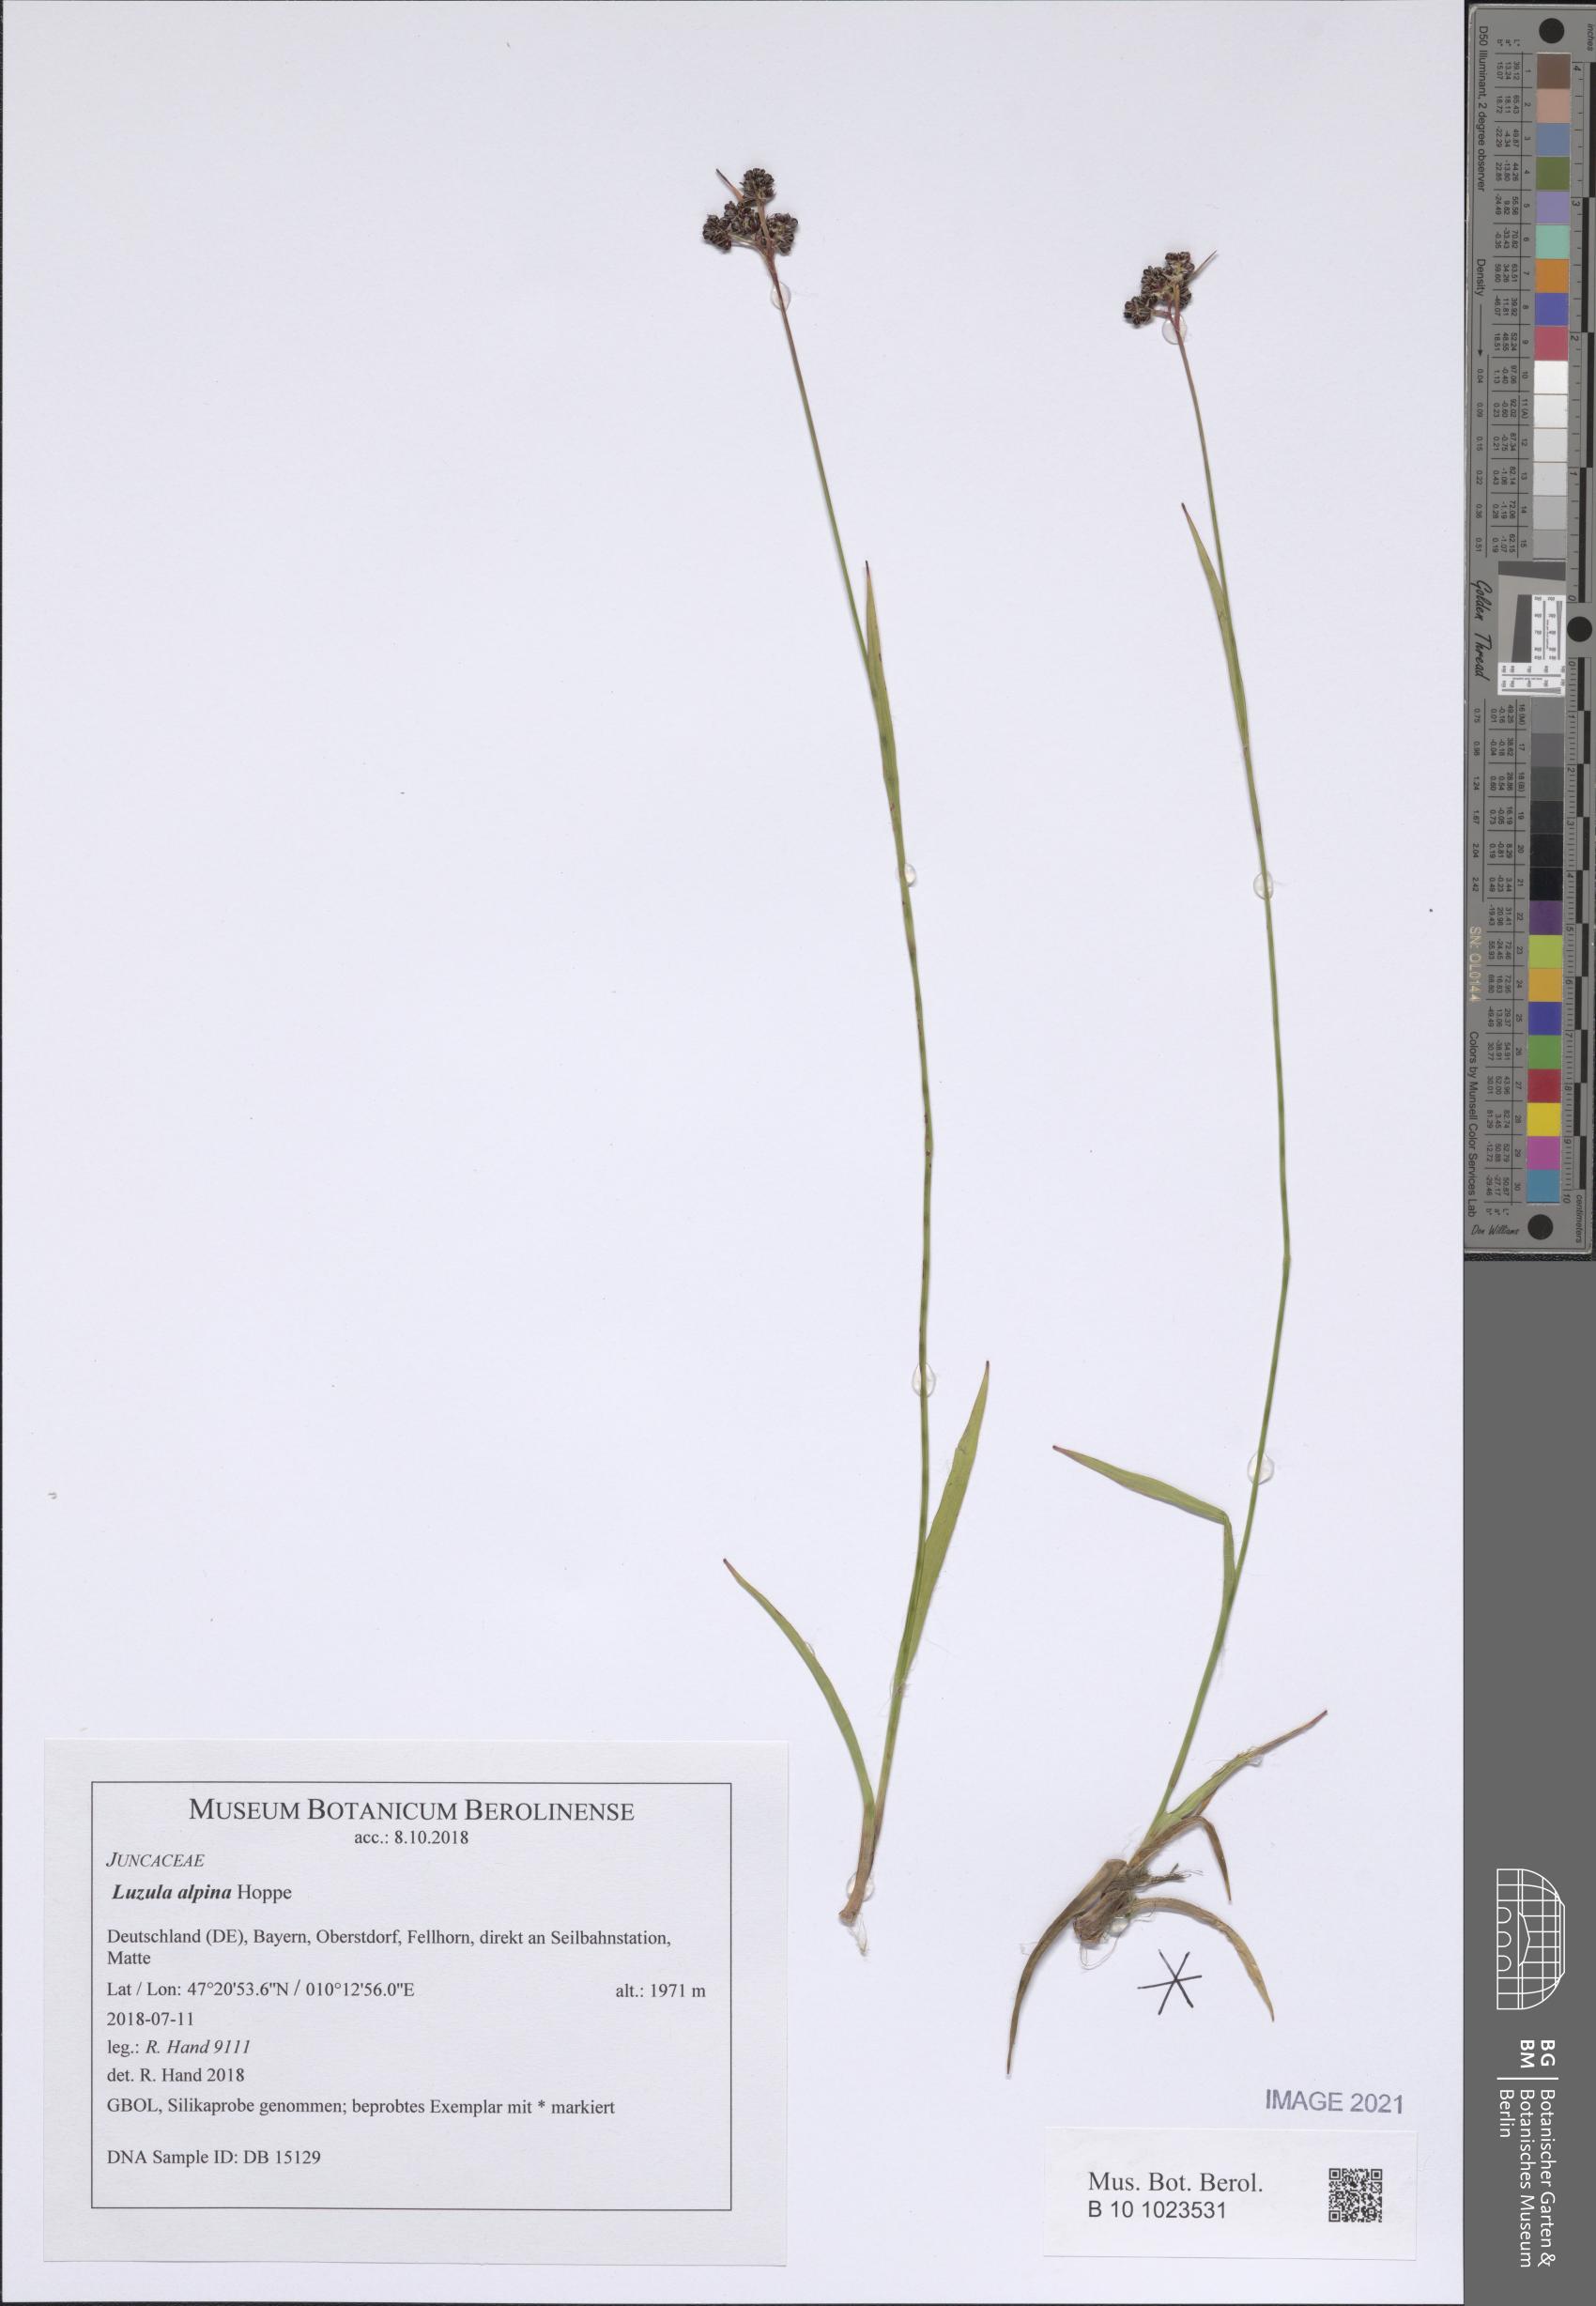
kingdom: Plantae
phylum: Tracheophyta
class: Liliopsida
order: Poales
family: Juncaceae
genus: Luzula
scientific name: Luzula alpina
